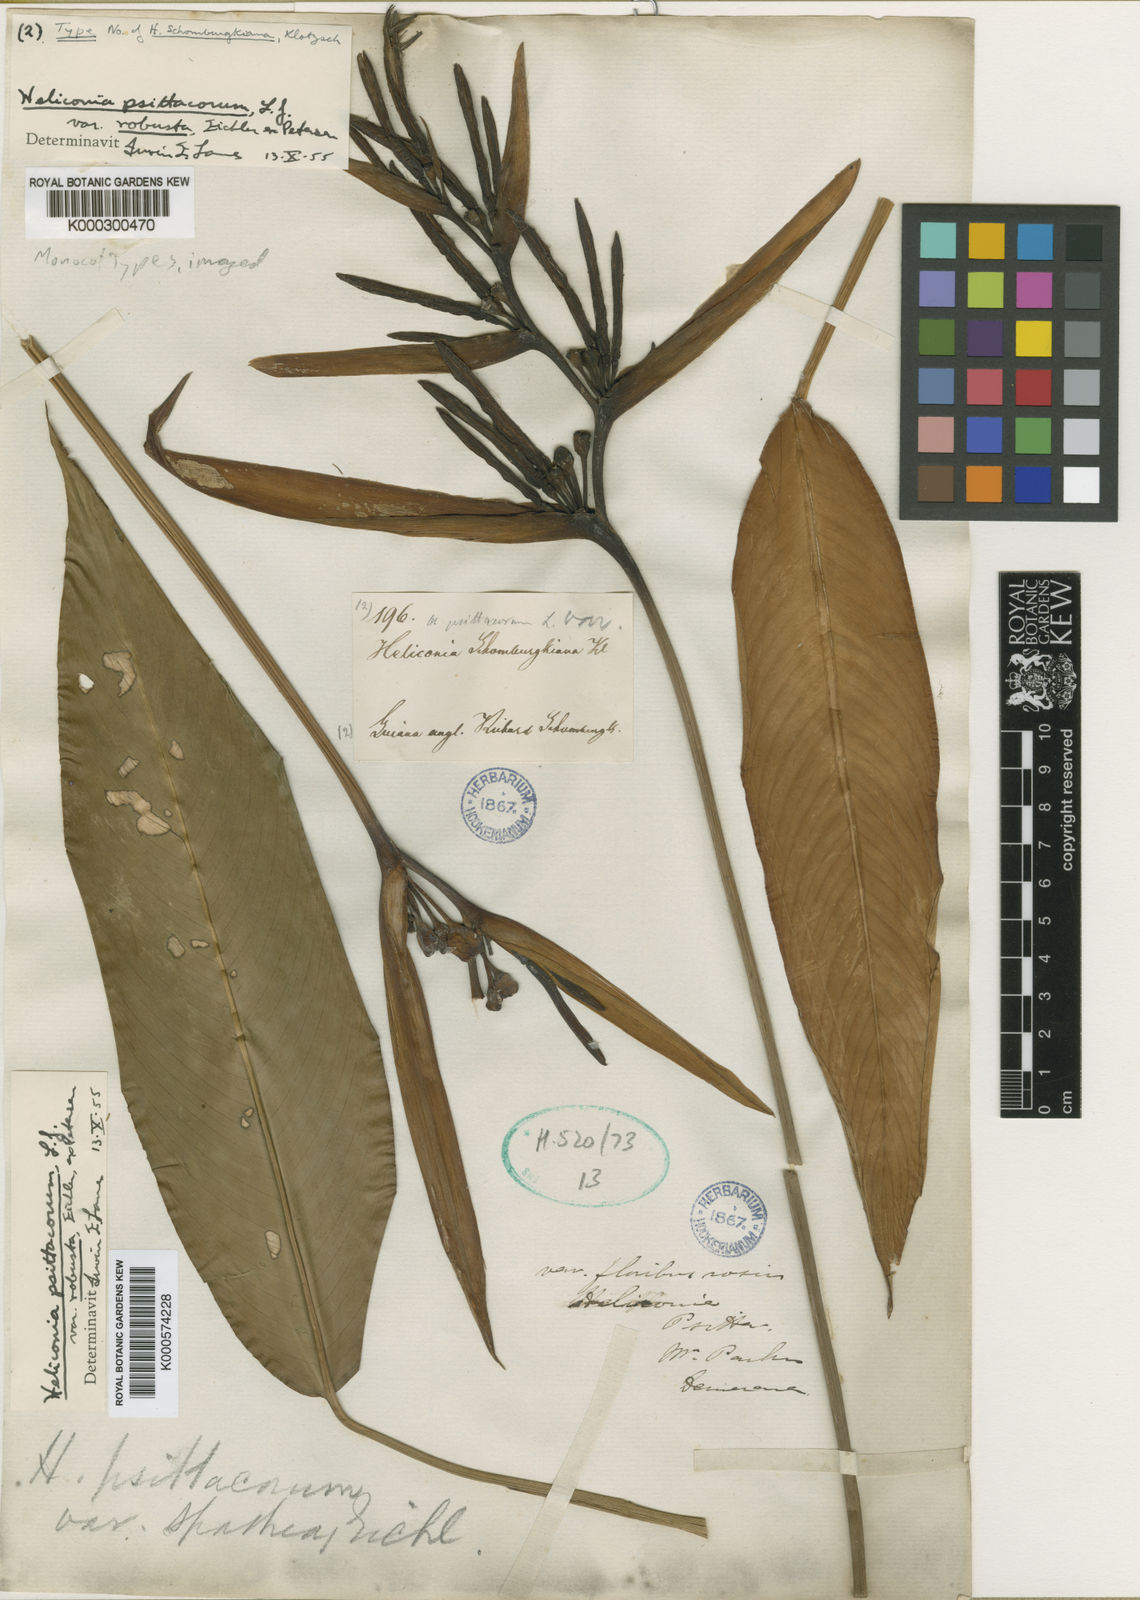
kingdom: Plantae
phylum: Tracheophyta
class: Liliopsida
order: Zingiberales
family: Heliconiaceae
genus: Heliconia
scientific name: Heliconia psittacorum
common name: Parrot's-flower
